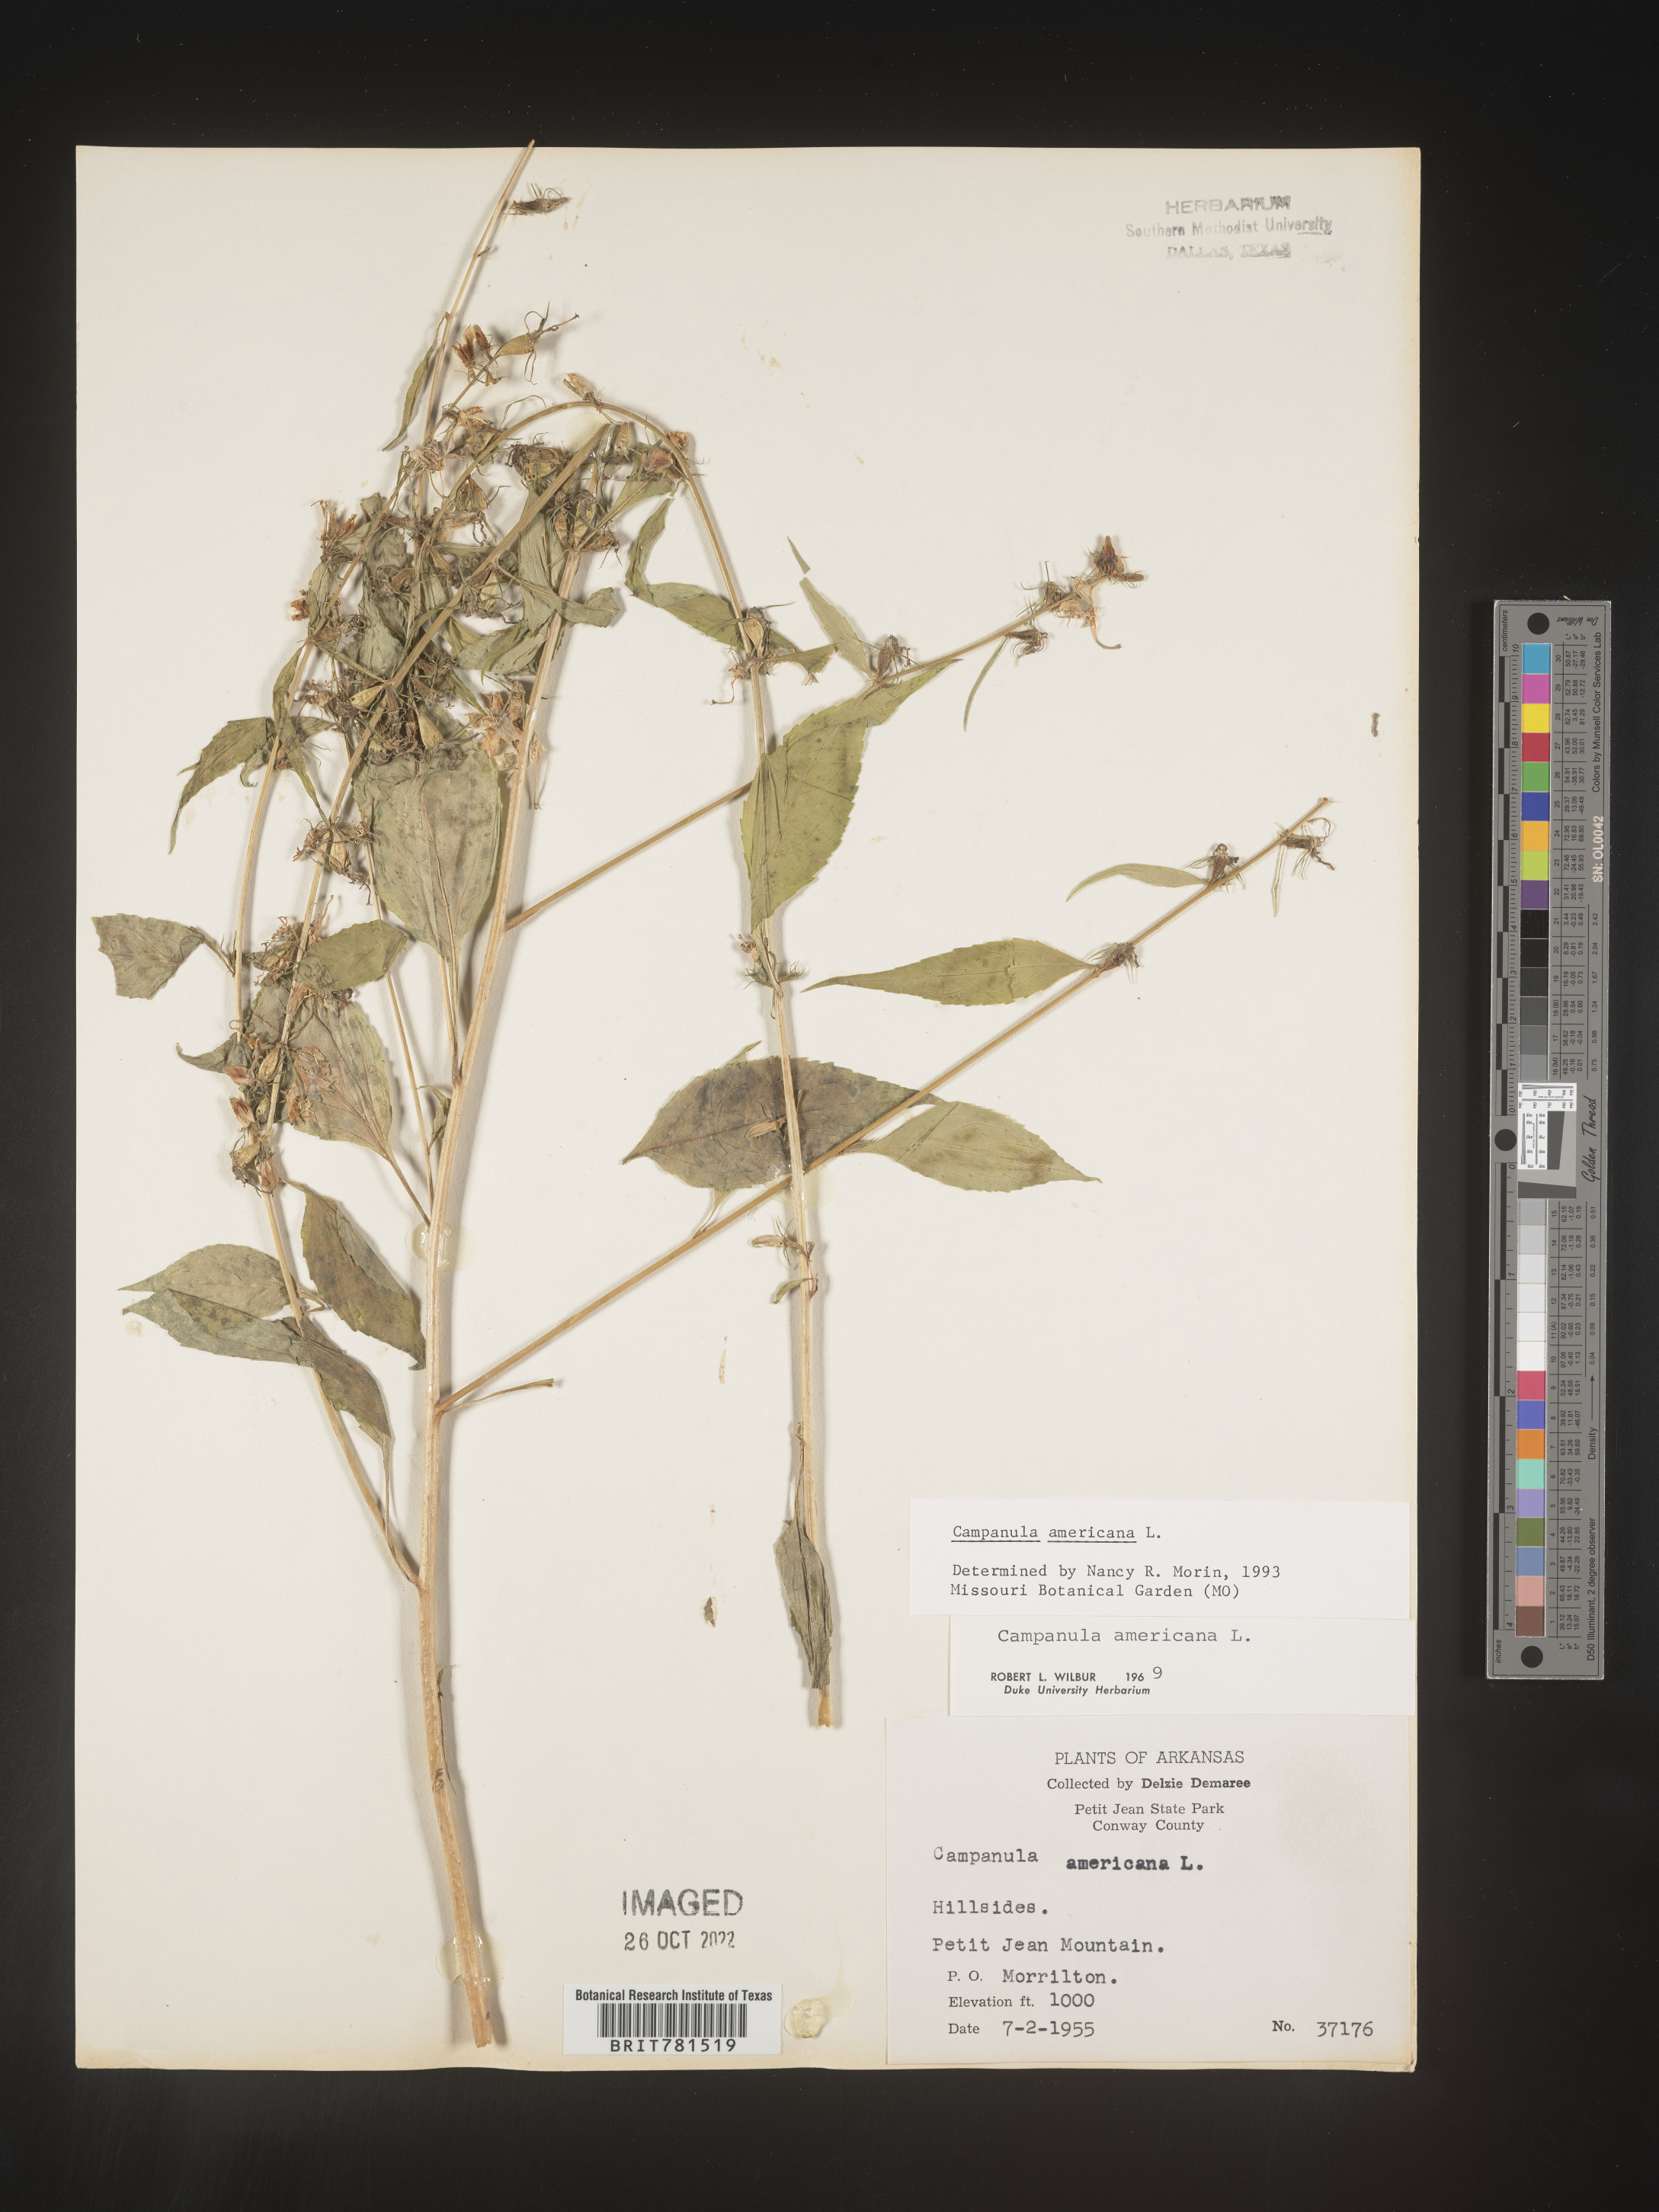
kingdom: Plantae
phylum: Tracheophyta
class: Magnoliopsida
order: Asterales
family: Campanulaceae
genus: Campanula
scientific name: Campanula americana
